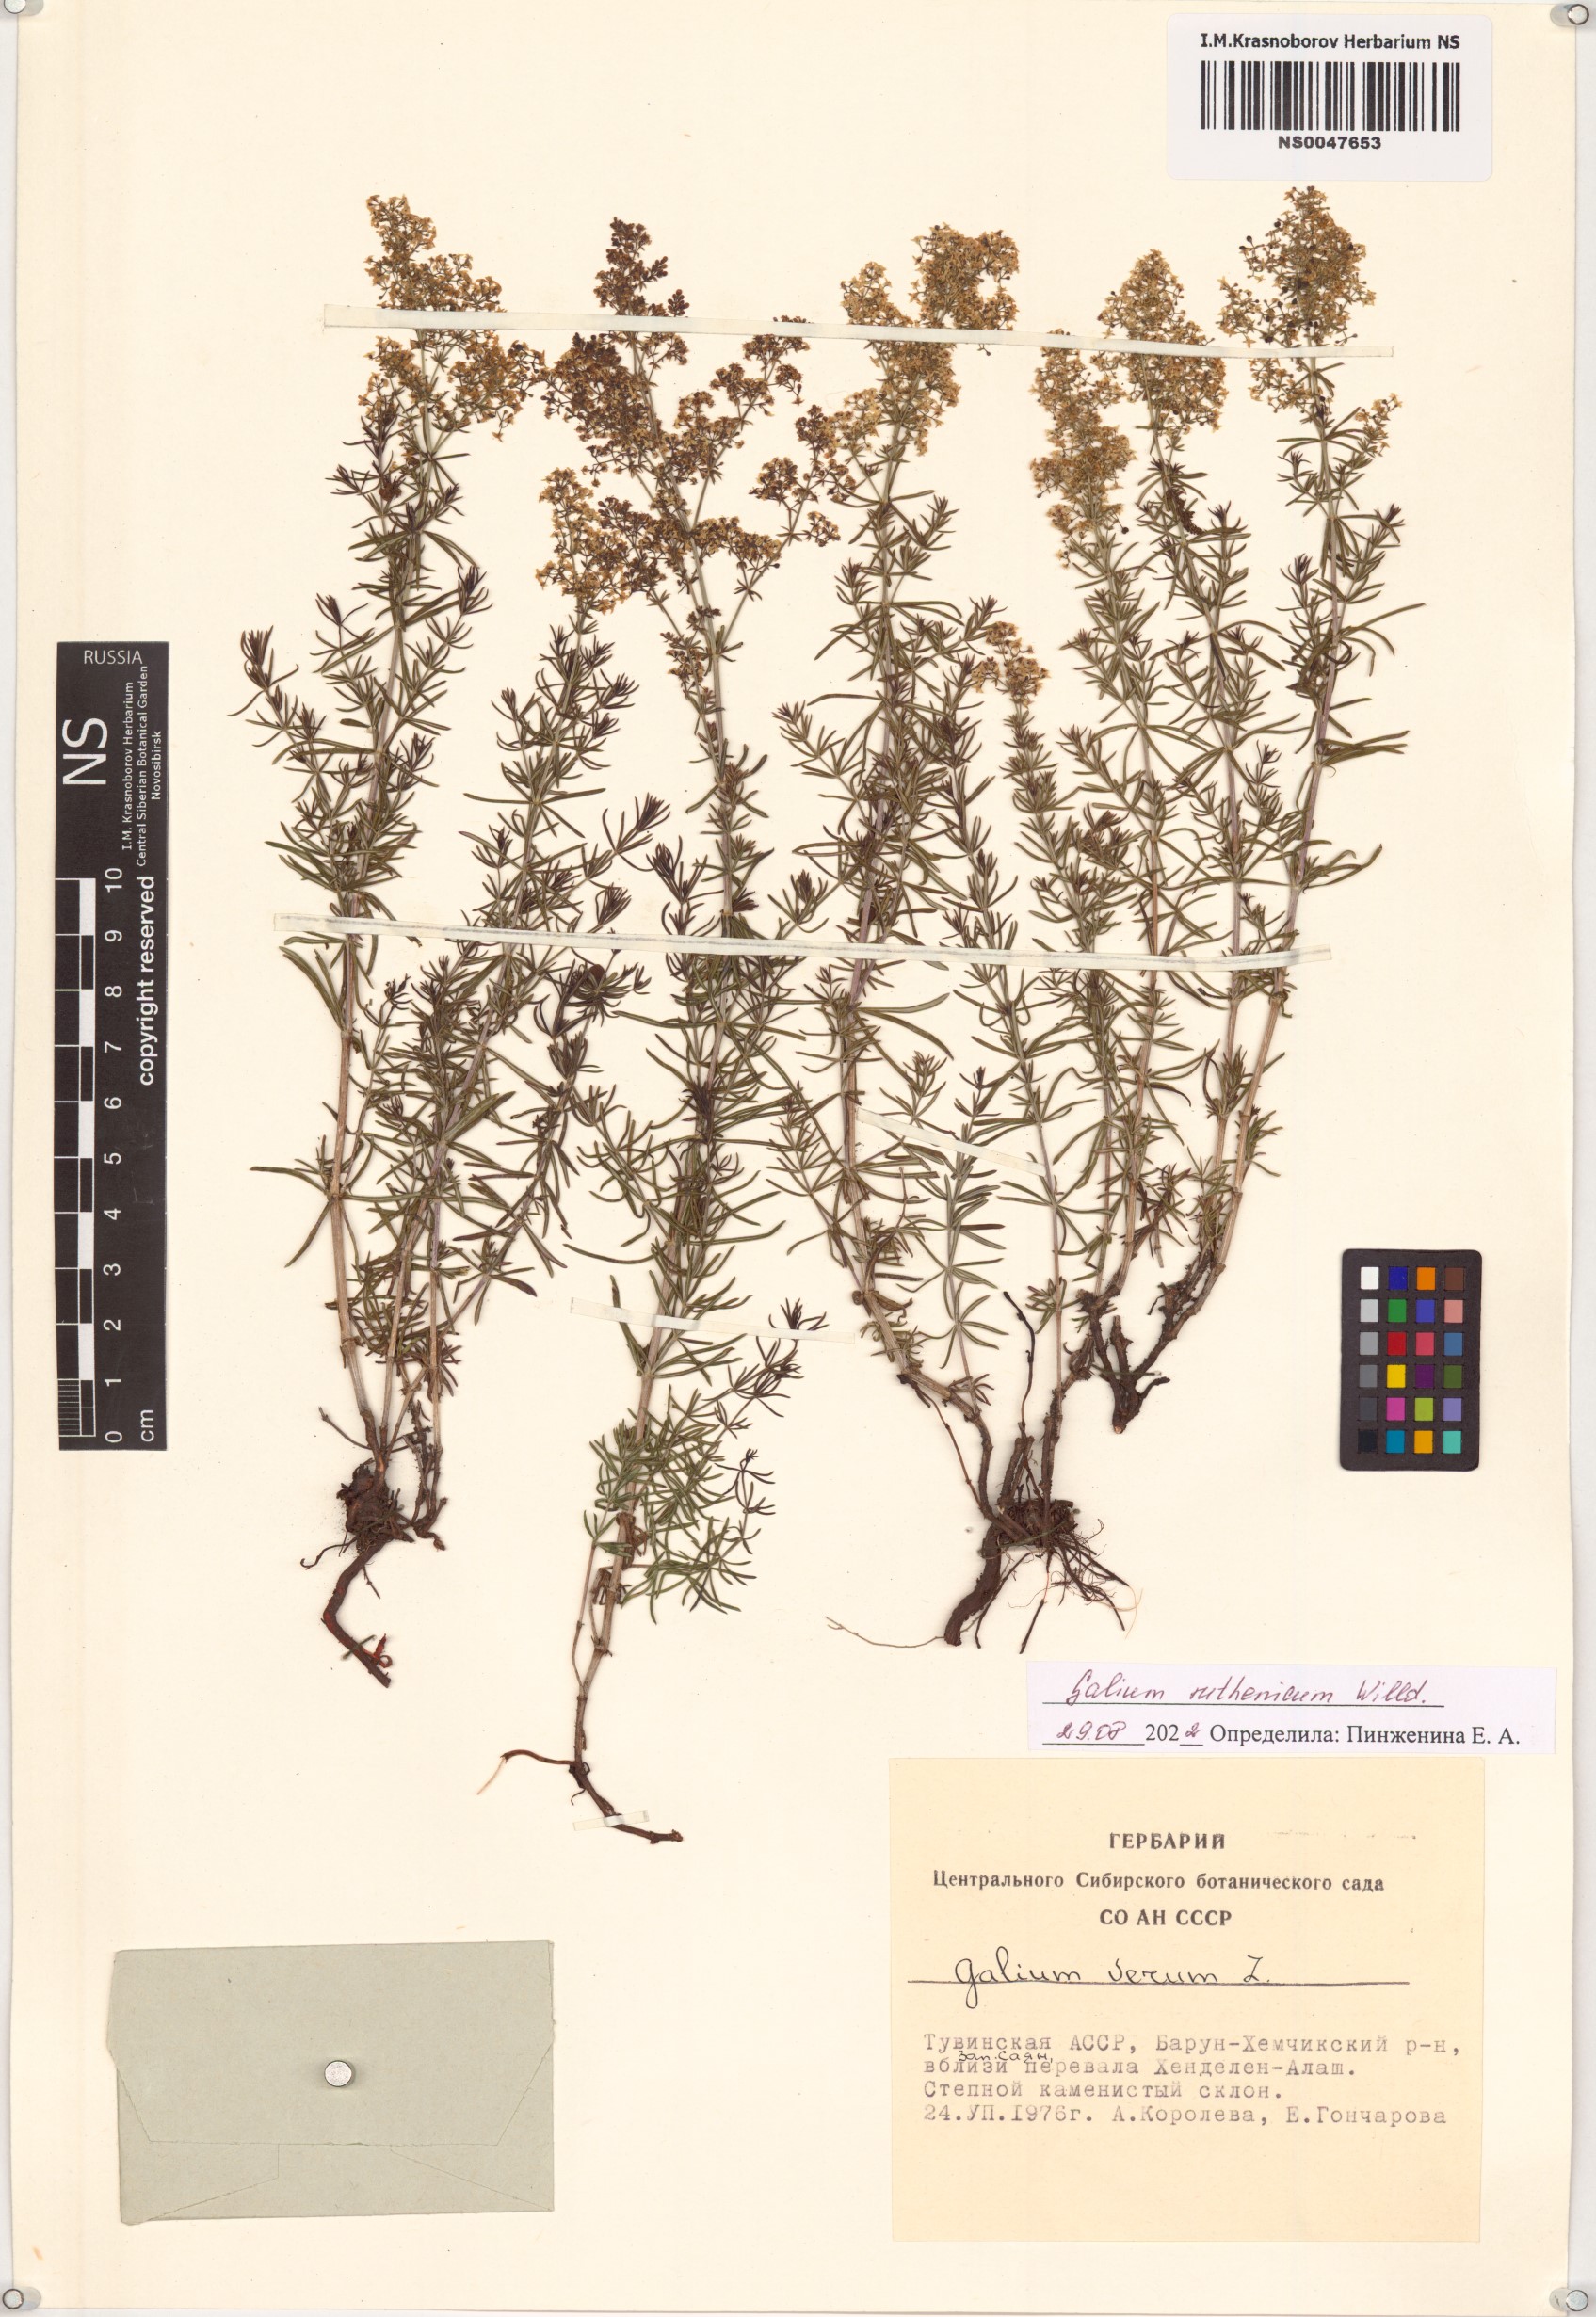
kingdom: Plantae
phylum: Tracheophyta
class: Magnoliopsida
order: Gentianales
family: Rubiaceae
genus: Galium
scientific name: Galium verum
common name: Lady's bedstraw
